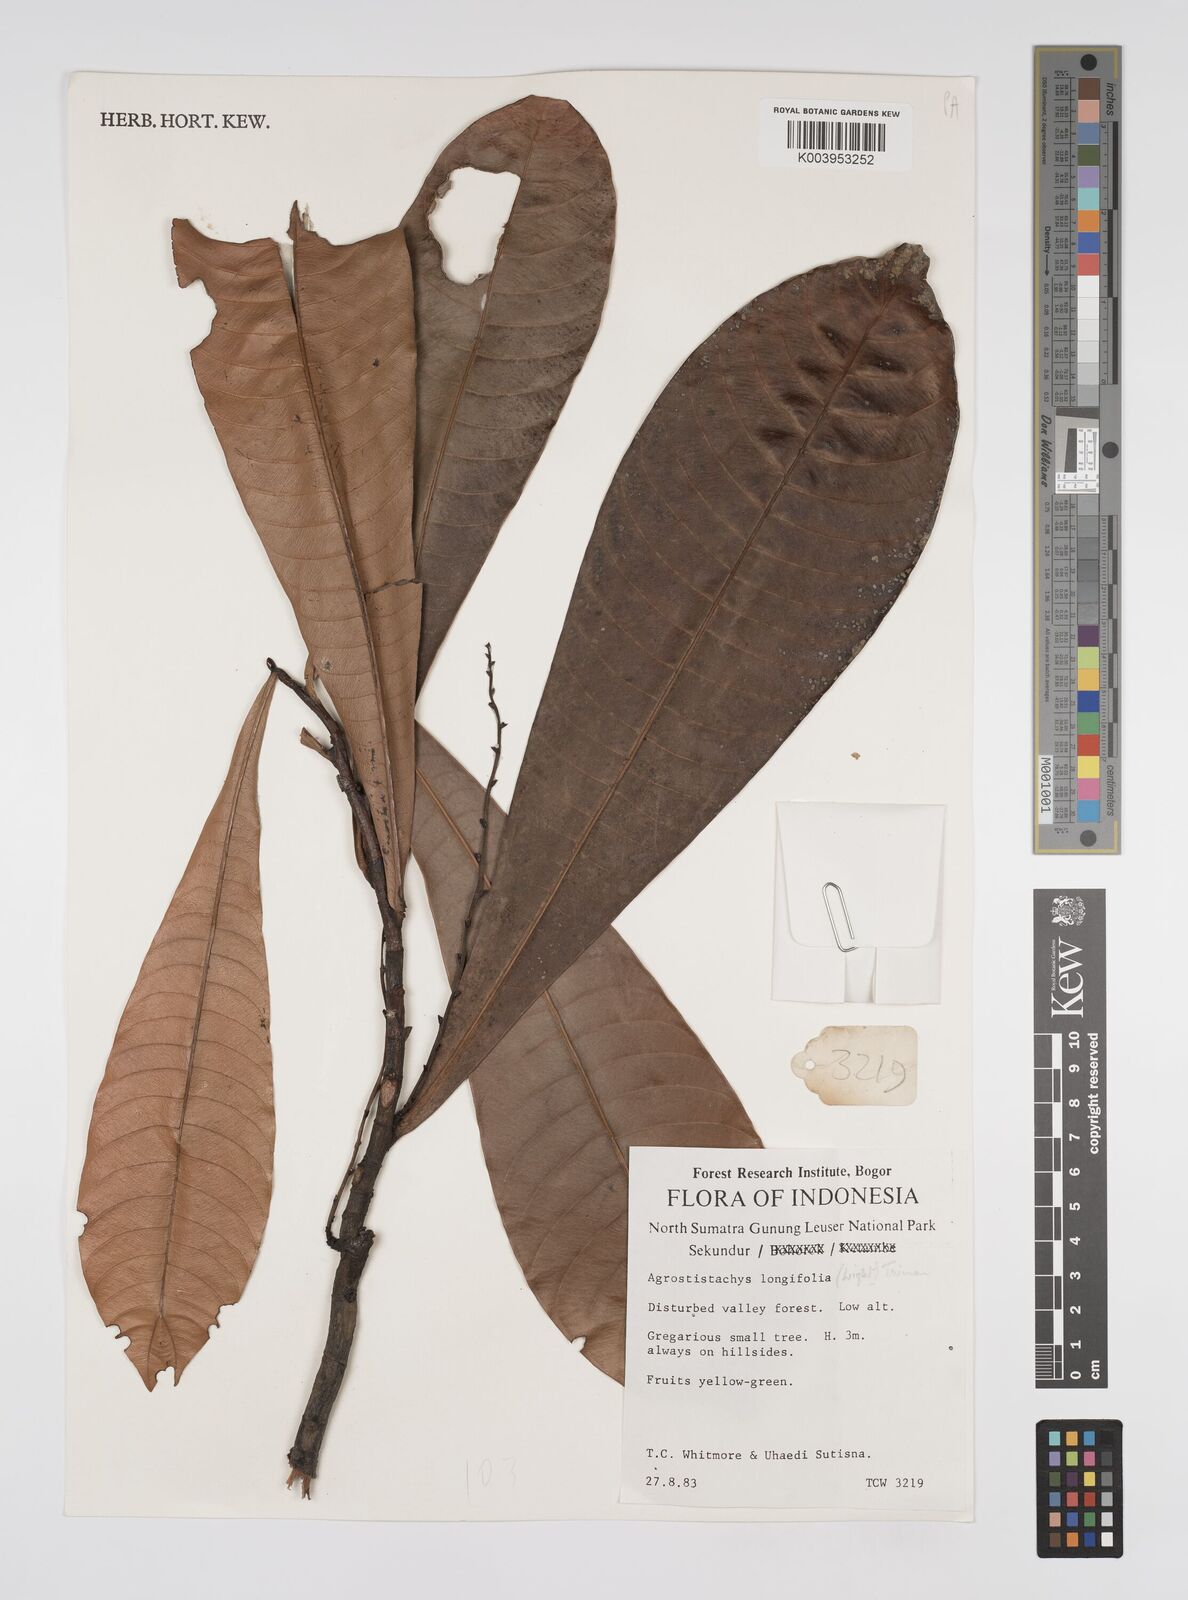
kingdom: Plantae
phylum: Tracheophyta
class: Magnoliopsida
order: Malpighiales
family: Euphorbiaceae
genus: Agrostistachys
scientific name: Agrostistachys borneensis
